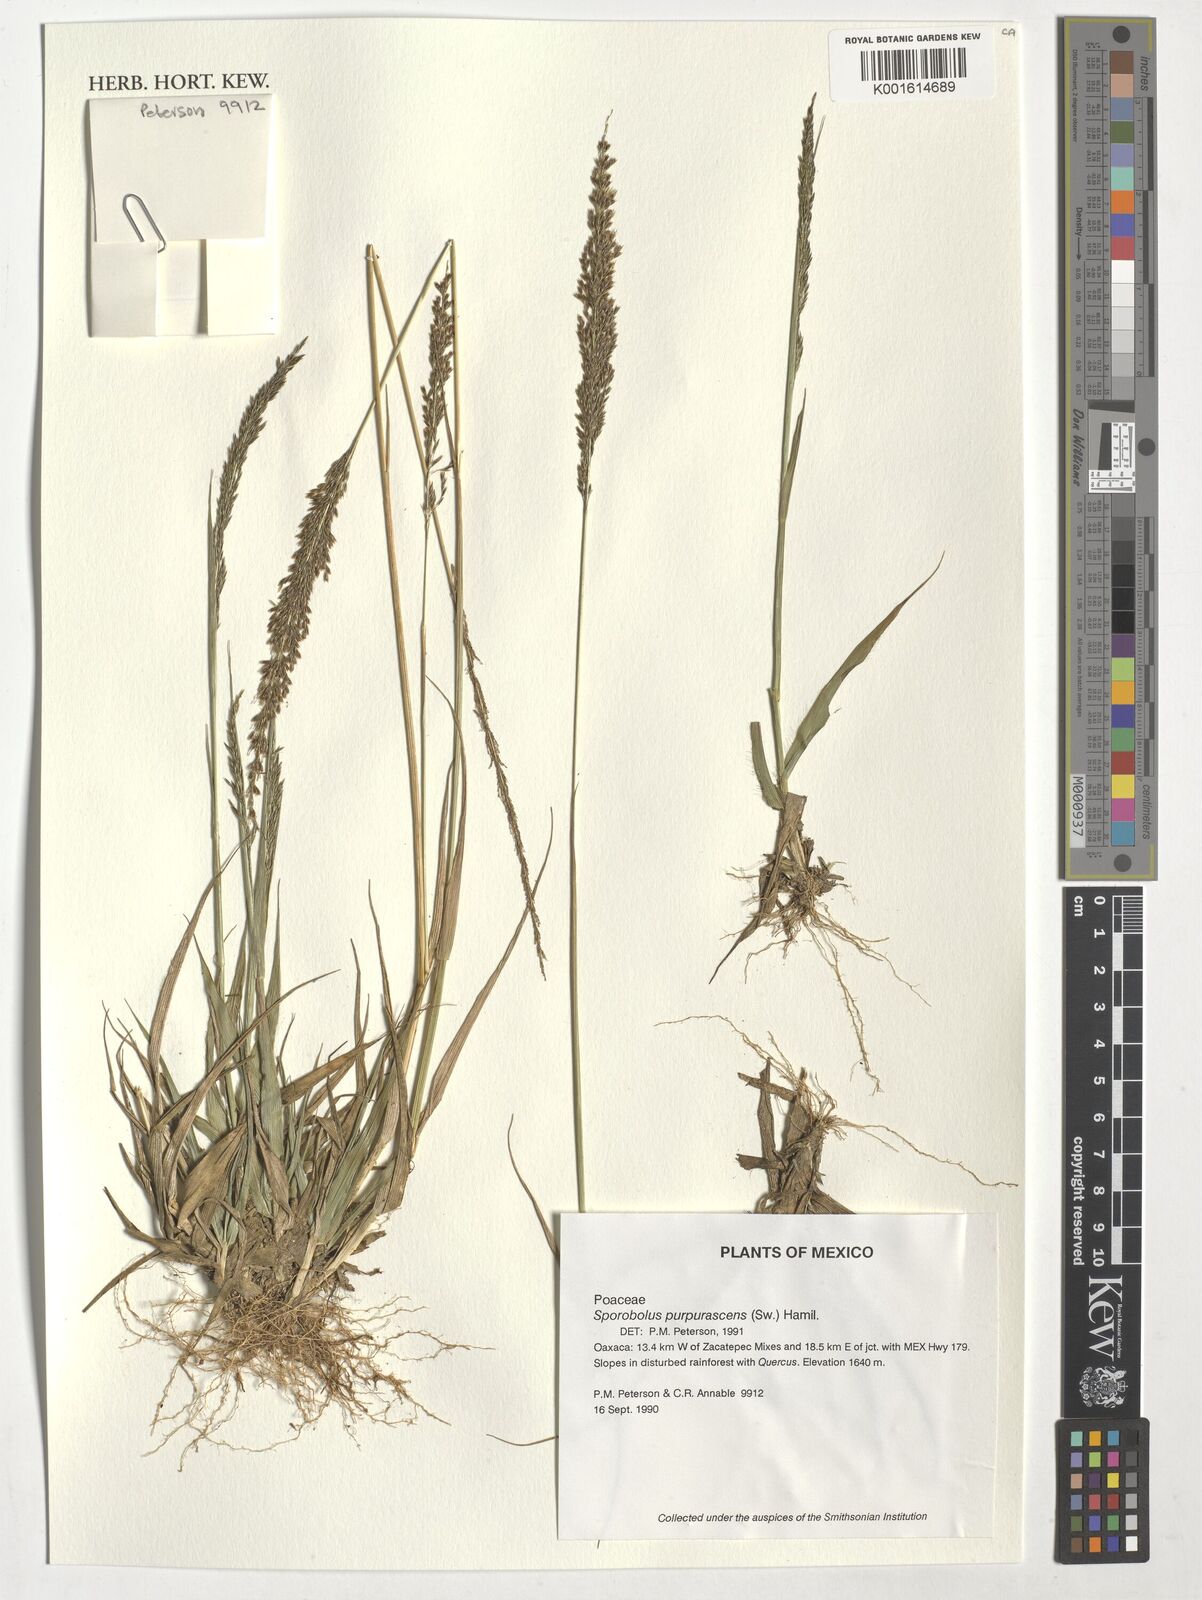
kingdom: Plantae
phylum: Tracheophyta
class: Liliopsida
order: Poales
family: Poaceae
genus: Sporobolus
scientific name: Sporobolus purpurascens
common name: Purple dropseed
